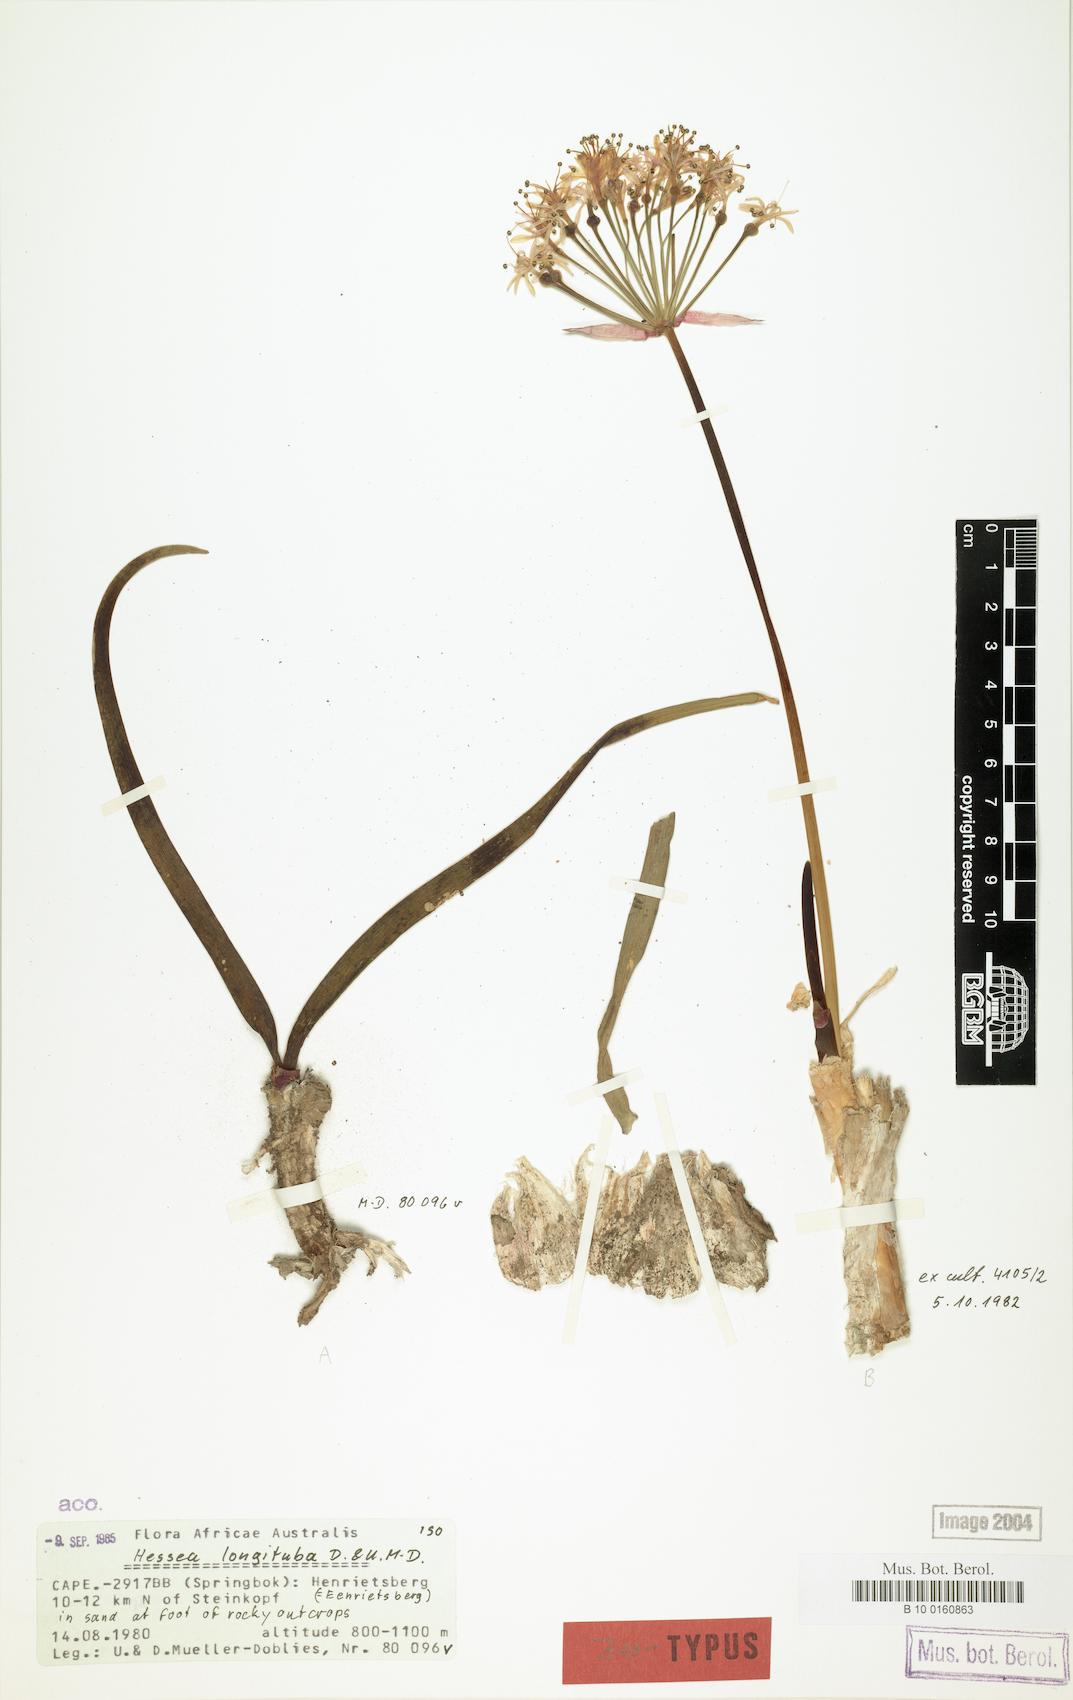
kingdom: Plantae
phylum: Tracheophyta
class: Liliopsida
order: Asparagales
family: Amaryllidaceae
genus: Hessea
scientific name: Hessea breviflora
